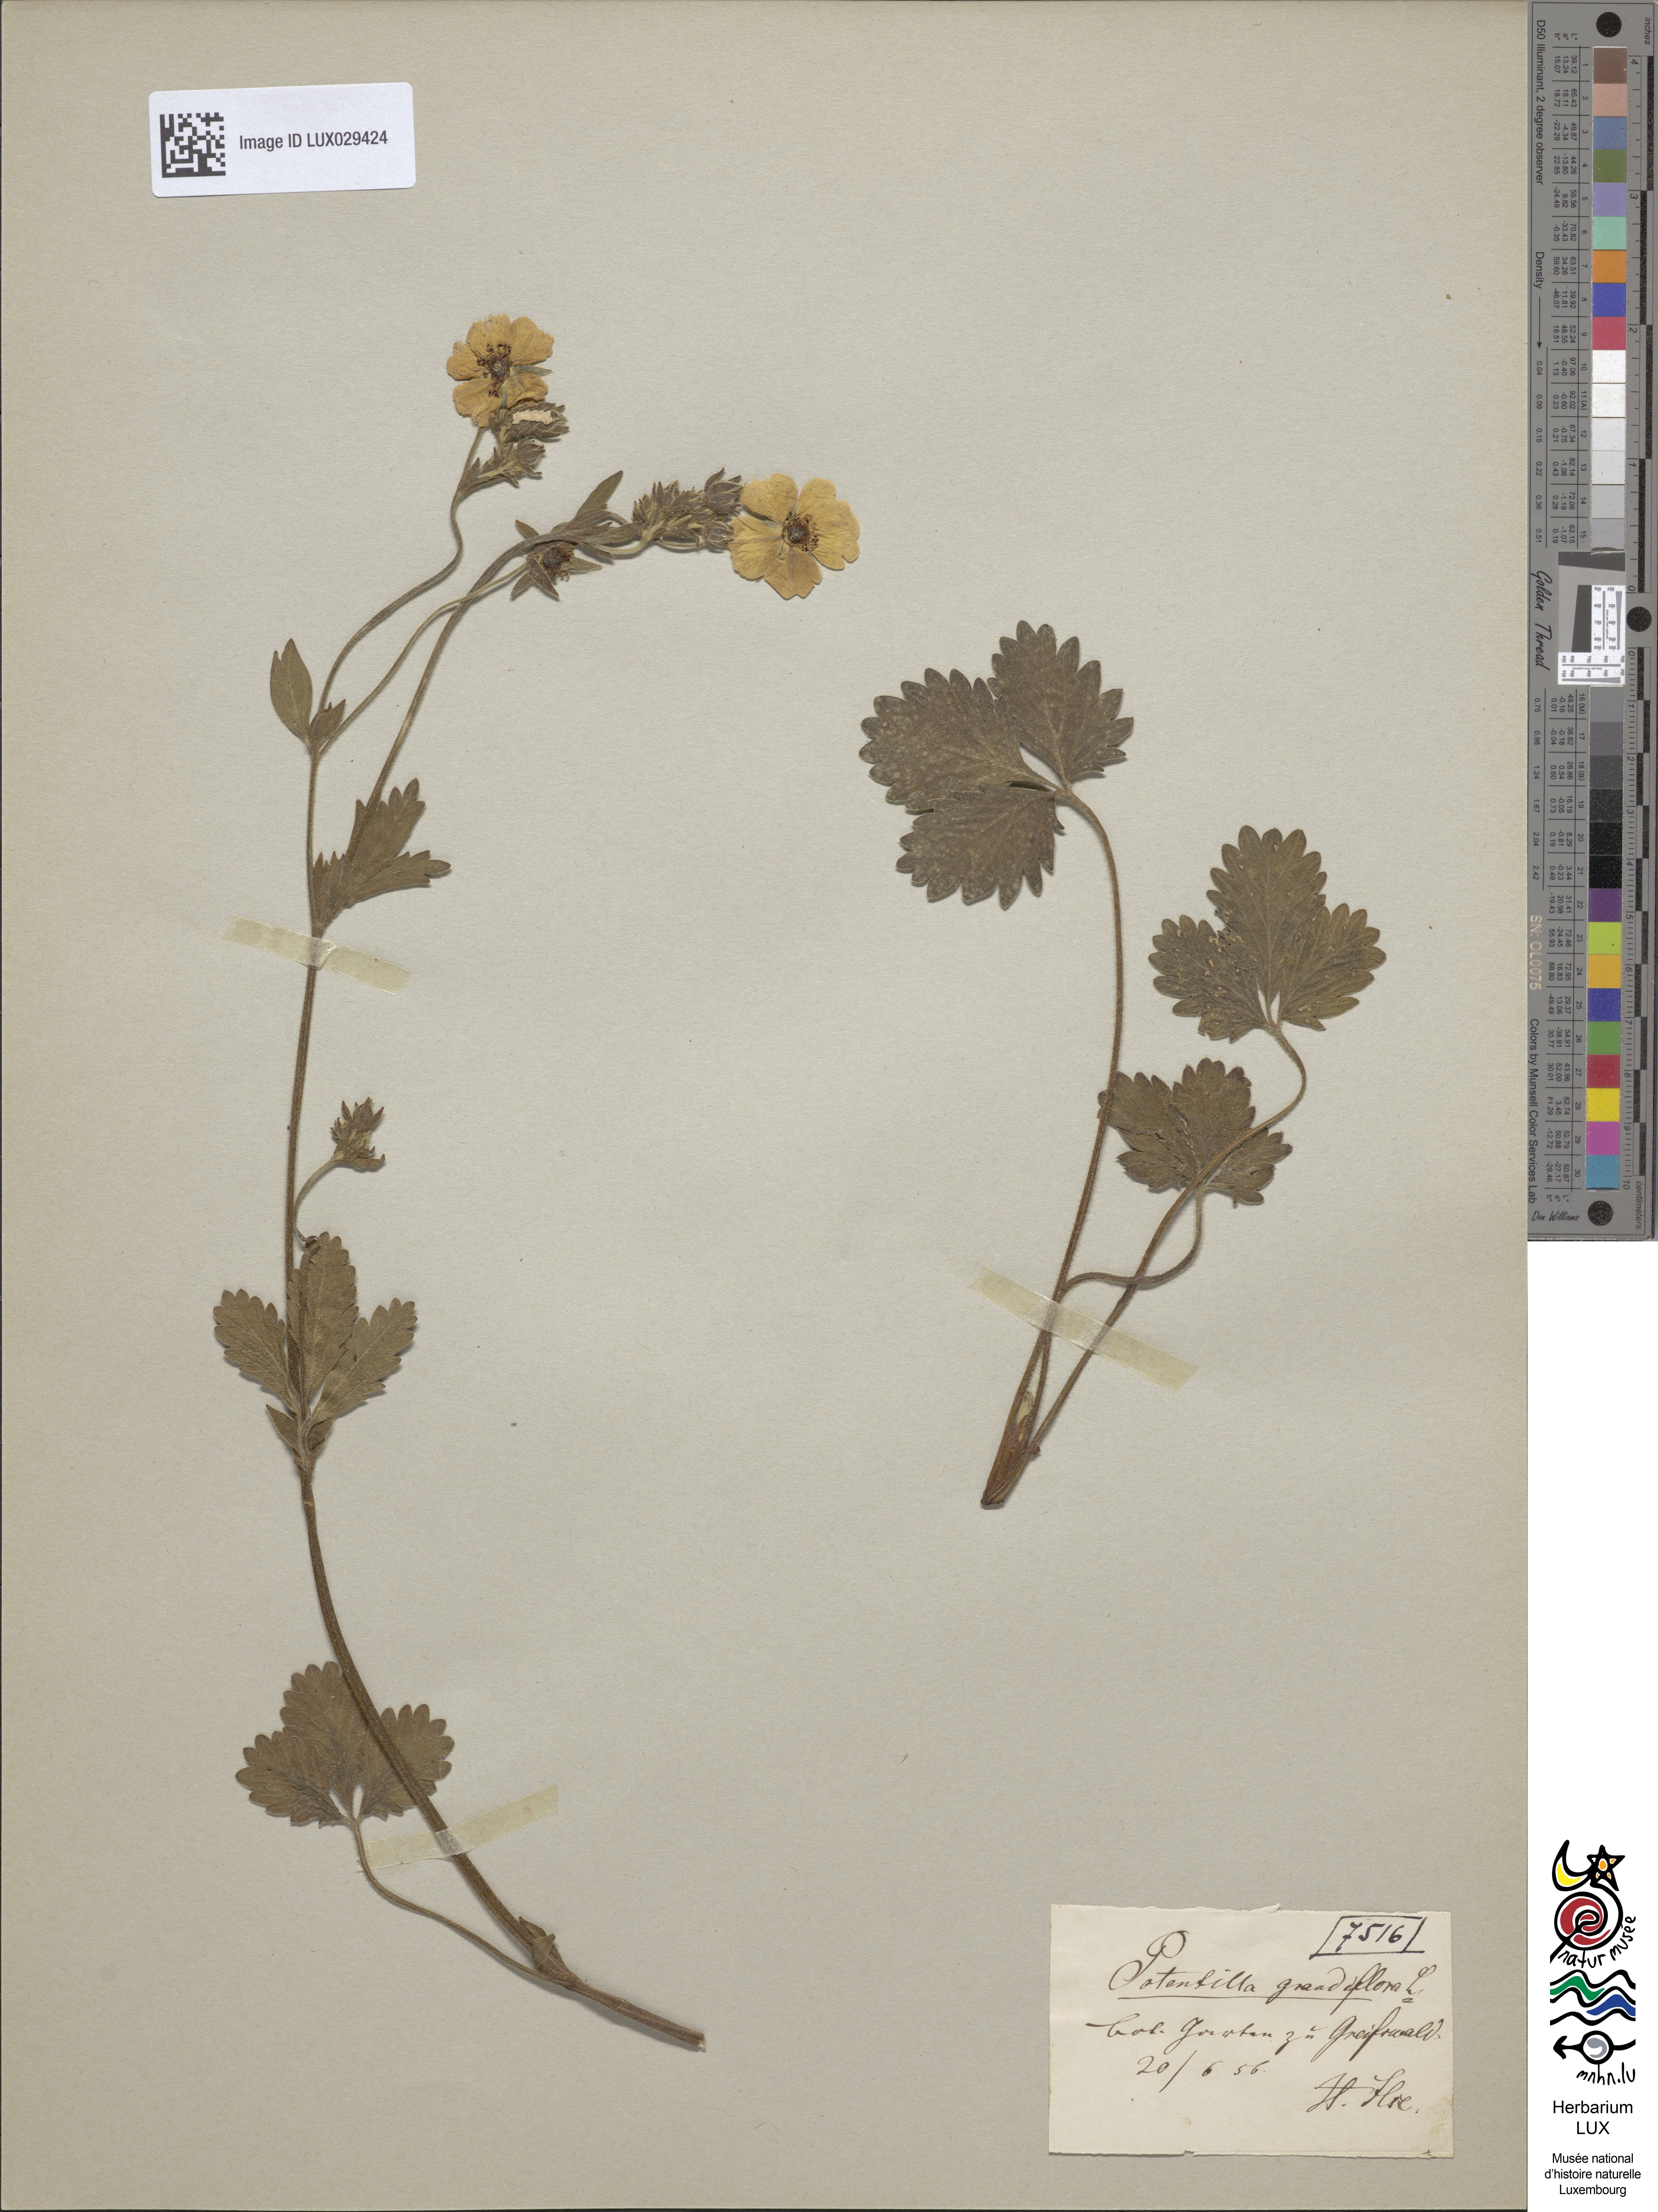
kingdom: Plantae
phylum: Tracheophyta
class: Magnoliopsida
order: Rosales
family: Rosaceae
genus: Potentilla
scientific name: Potentilla grandiflora
